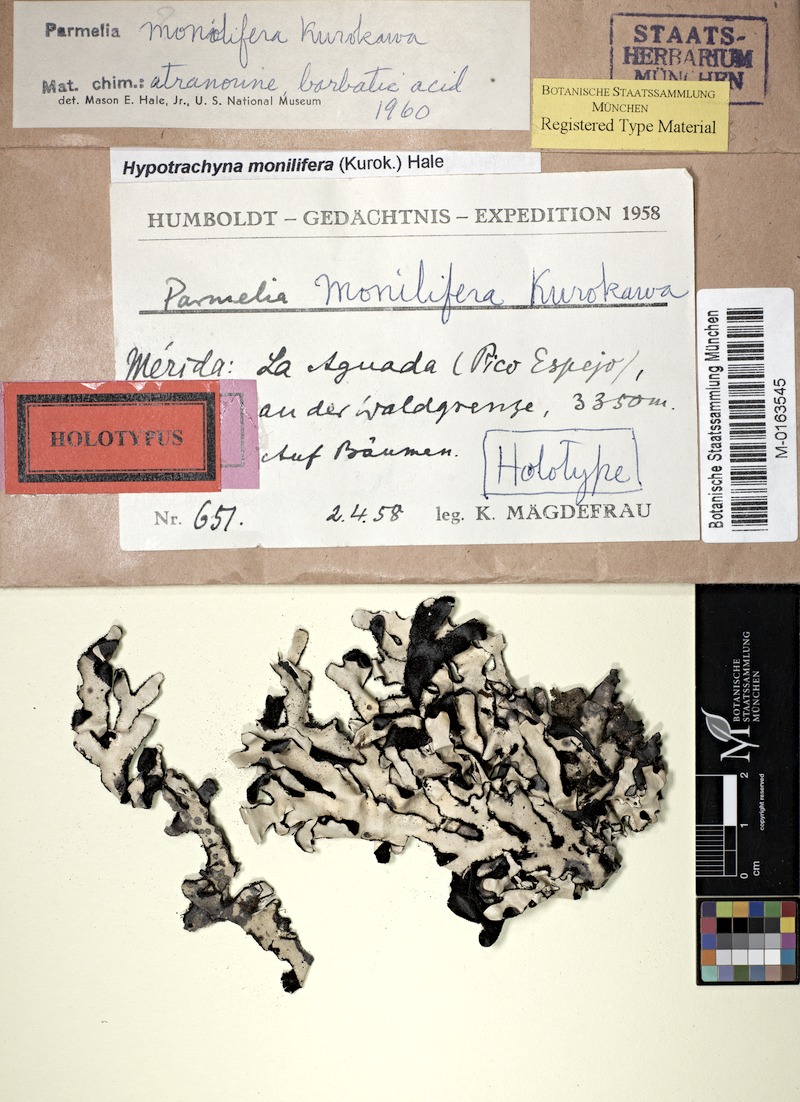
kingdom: Fungi
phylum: Ascomycota
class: Lecanoromycetes
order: Lecanorales
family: Parmeliaceae
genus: Hypotrachyna
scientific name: Hypotrachyna monilifera
